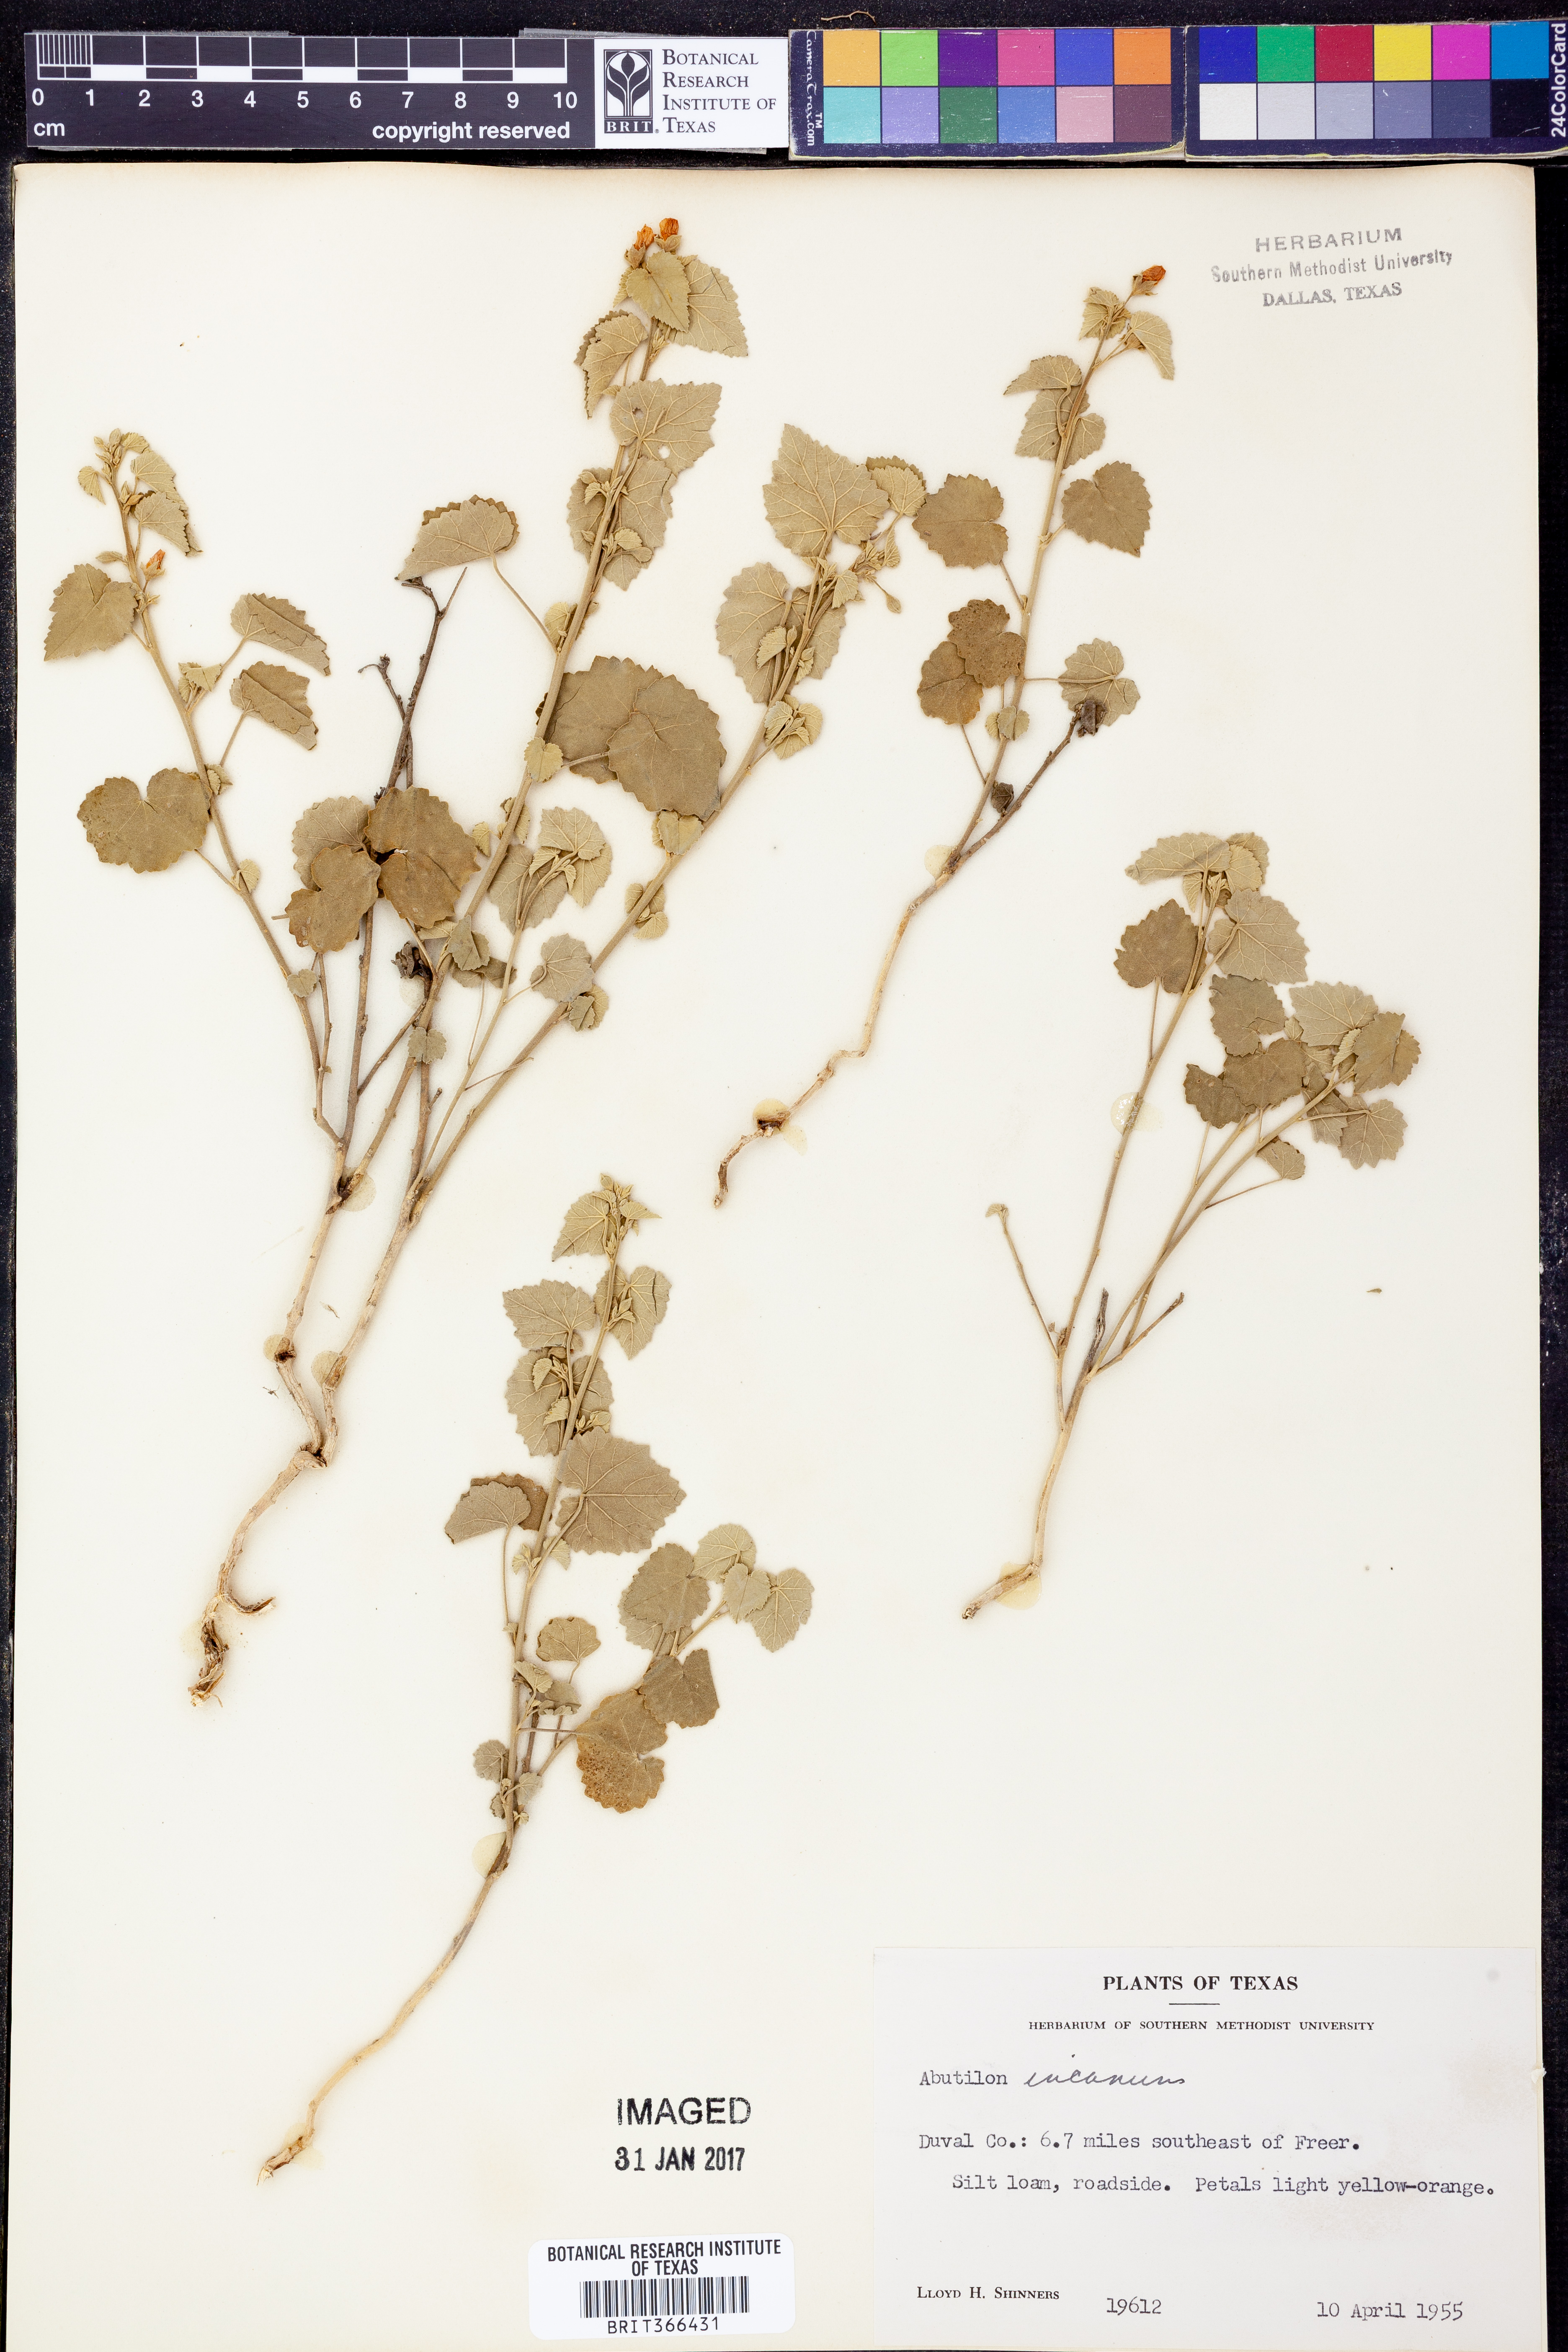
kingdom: Plantae
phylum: Tracheophyta
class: Magnoliopsida
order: Malvales
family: Malvaceae
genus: Abutilon
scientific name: Abutilon incanum
